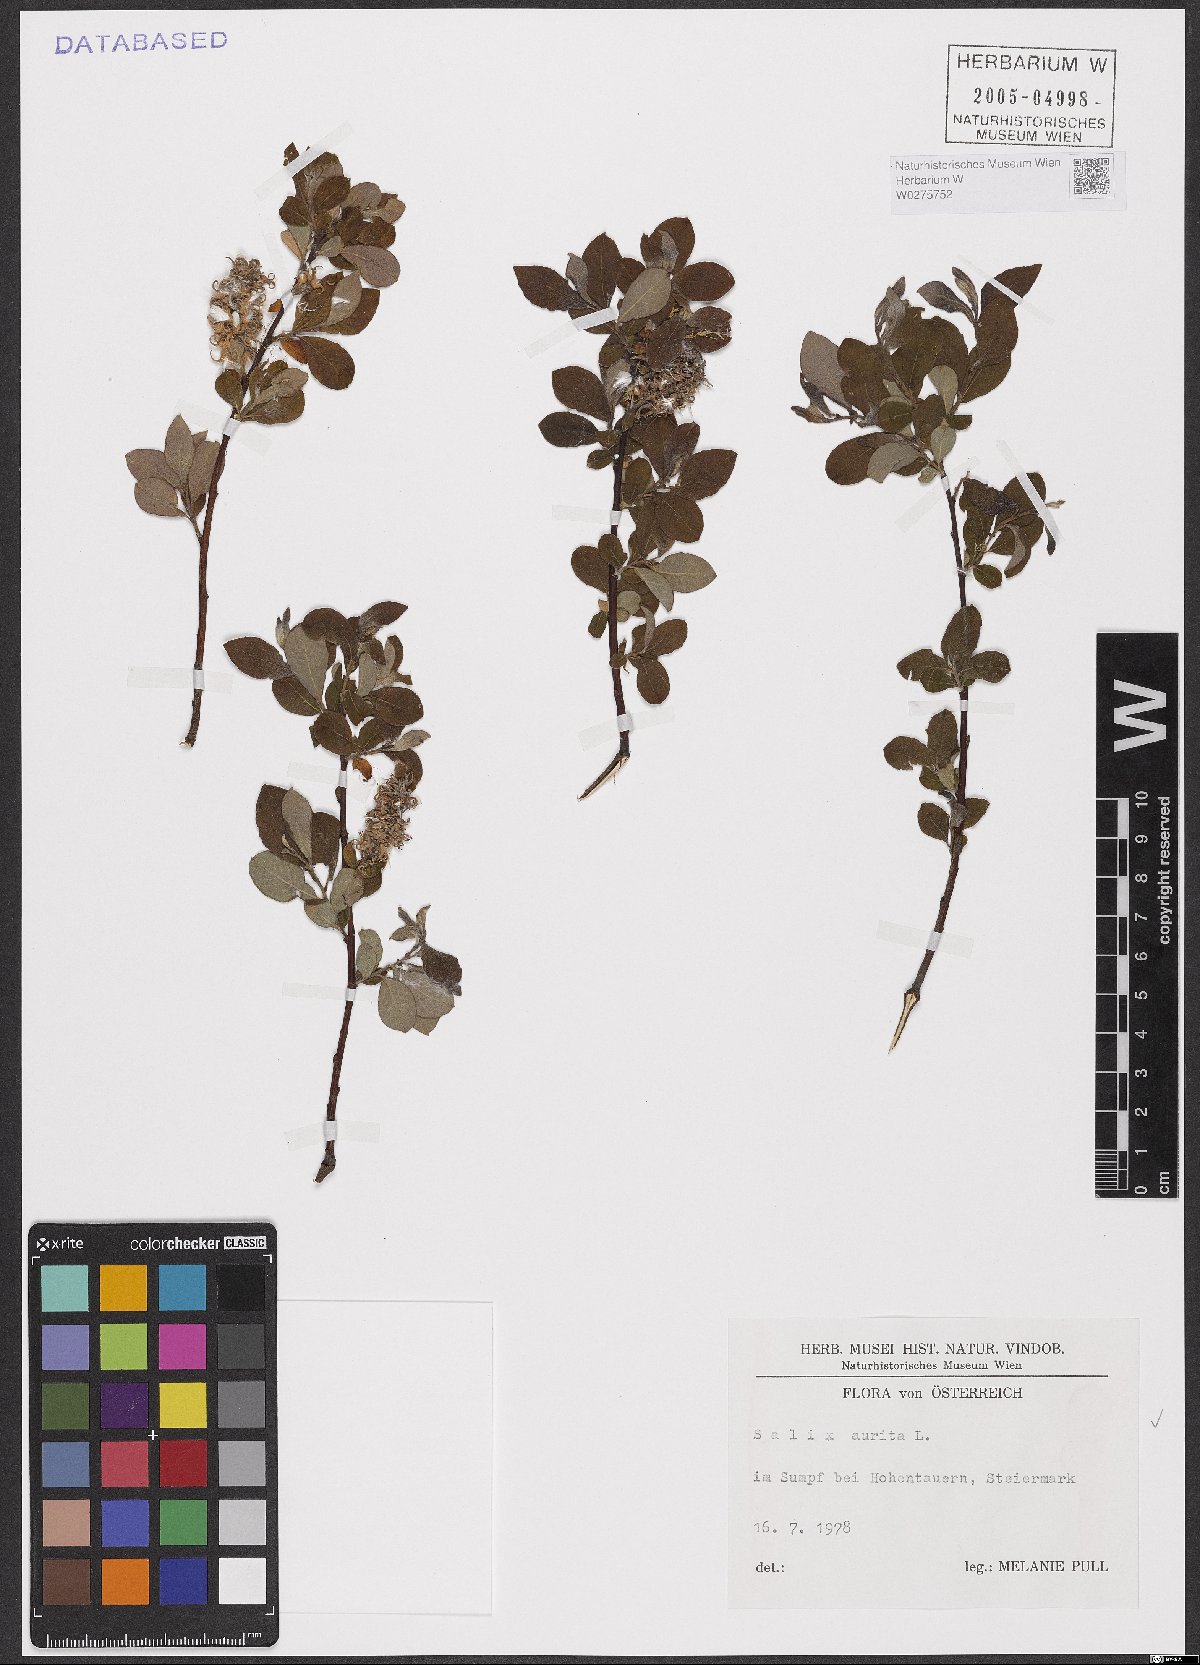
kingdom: Plantae
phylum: Tracheophyta
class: Magnoliopsida
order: Malpighiales
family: Salicaceae
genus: Salix
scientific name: Salix aurita
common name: Eared willow
